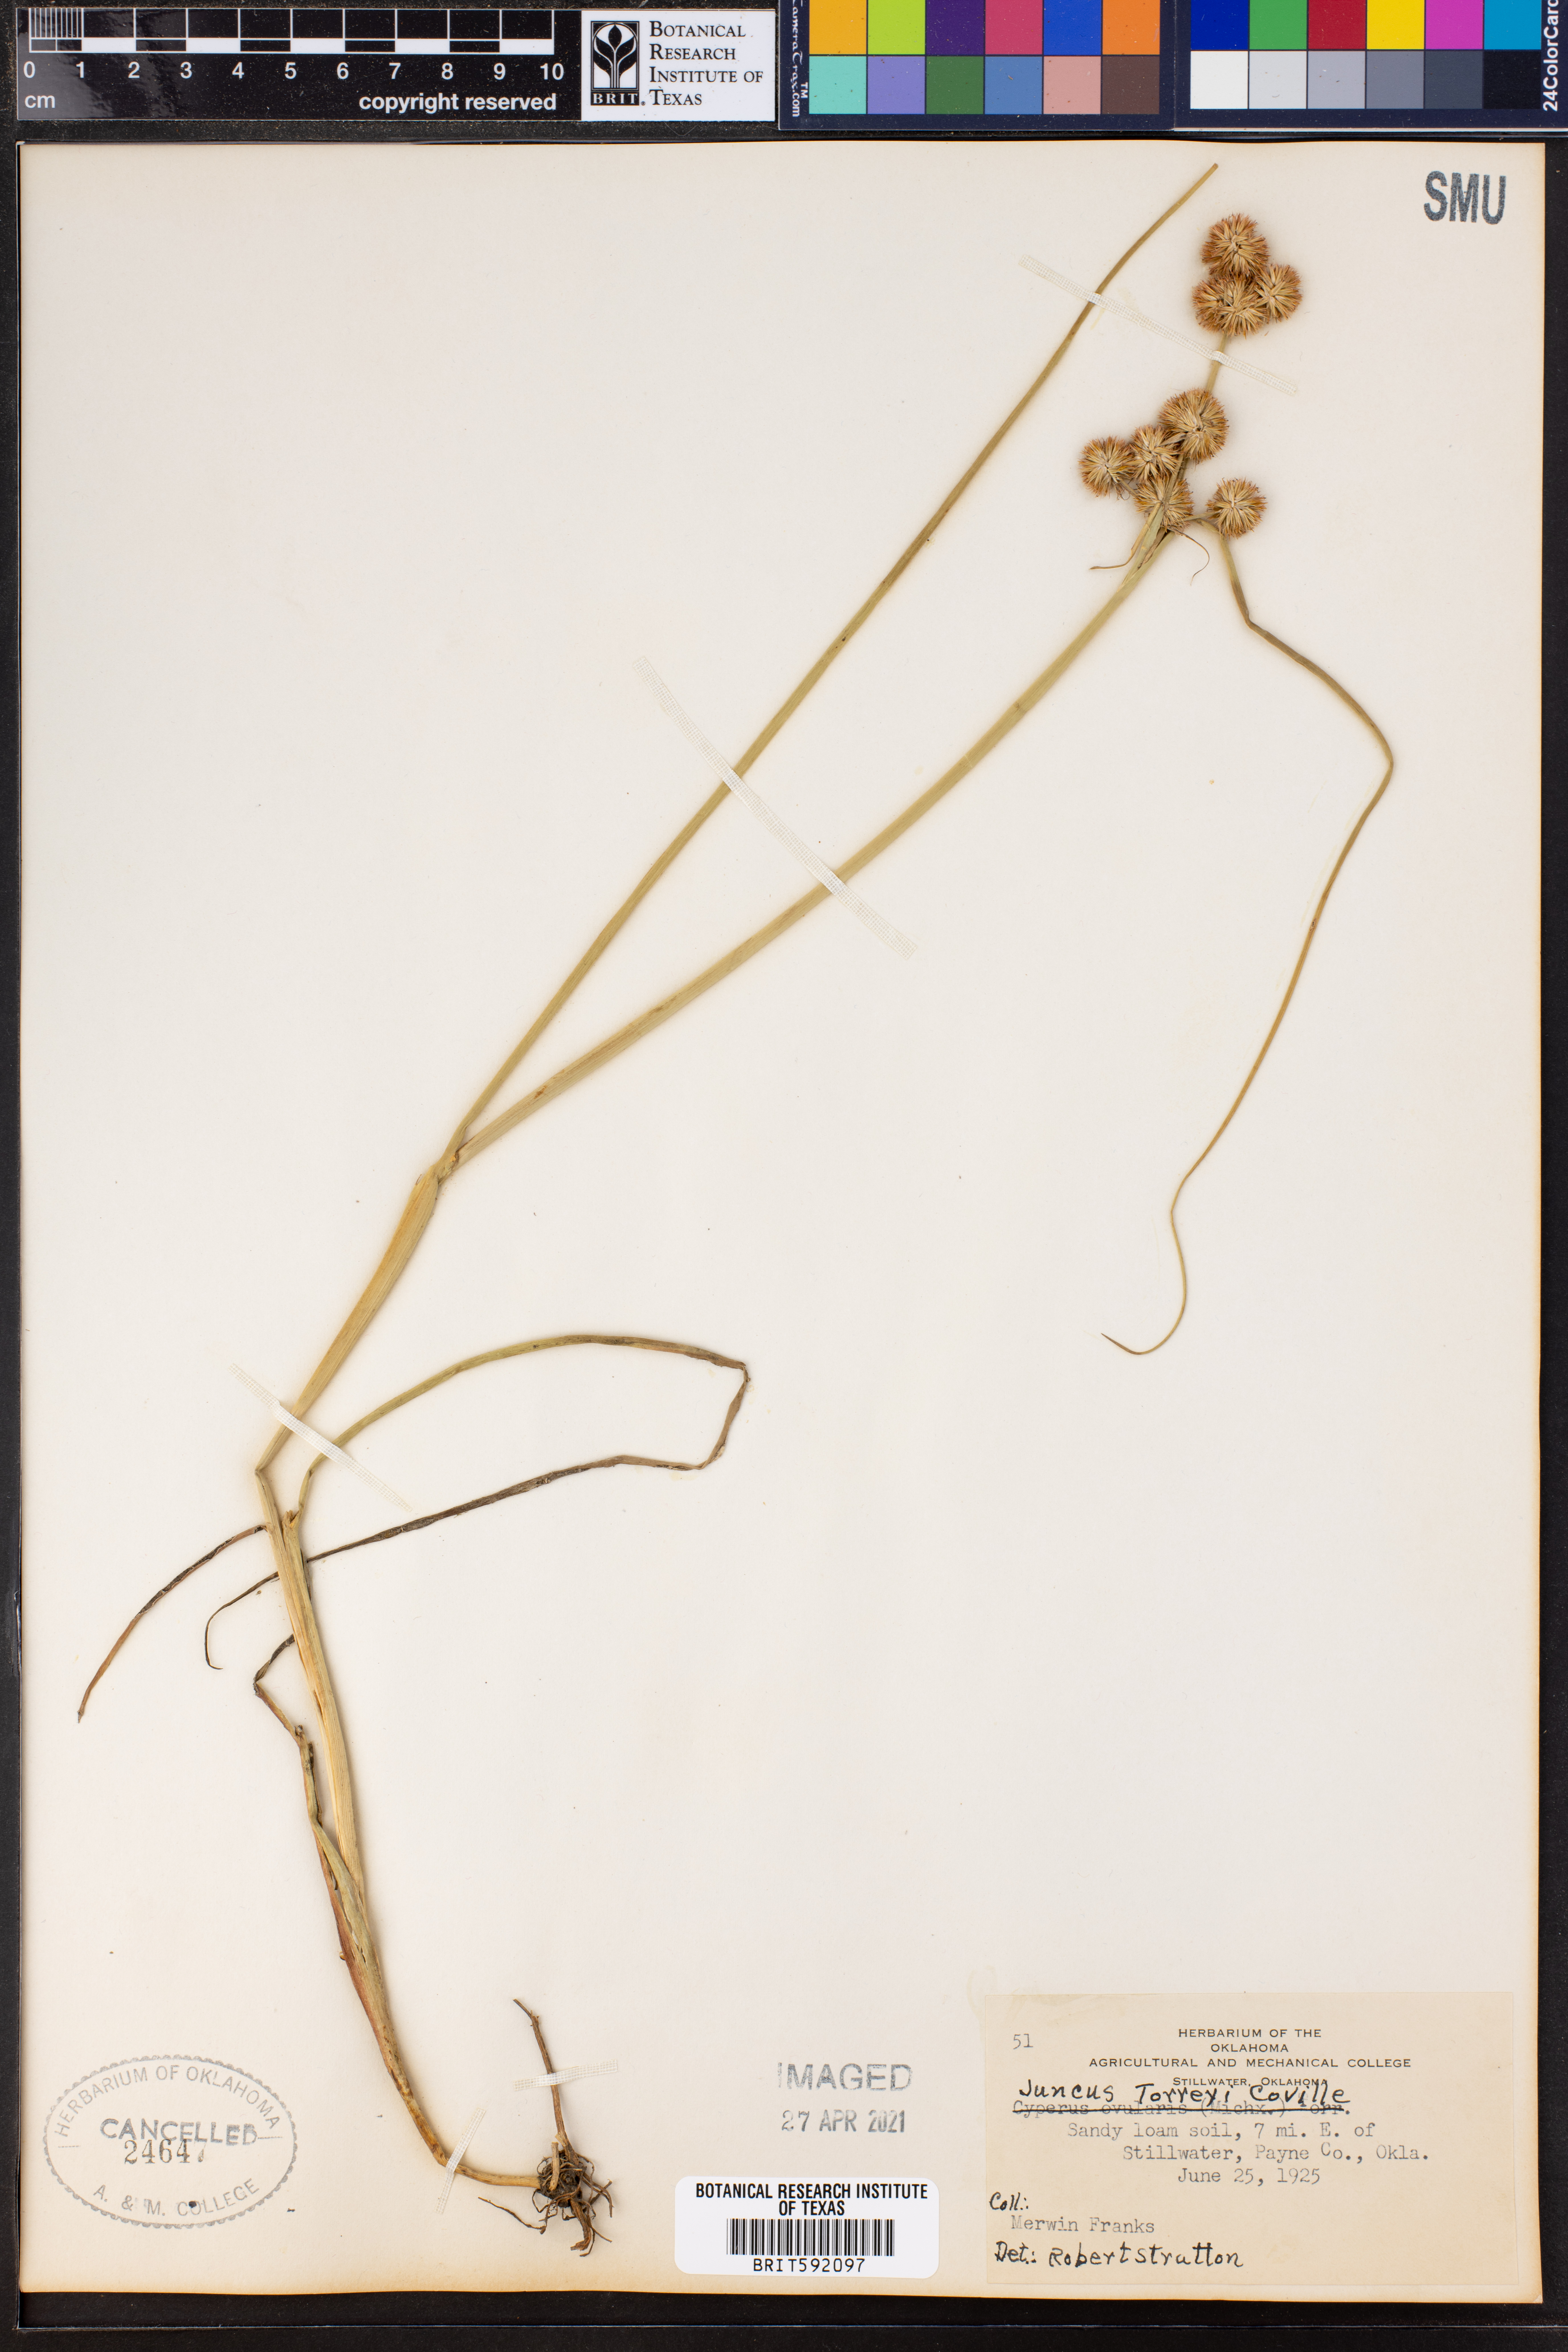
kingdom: Plantae
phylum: Tracheophyta
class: Liliopsida
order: Poales
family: Juncaceae
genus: Juncus
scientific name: Juncus torreyi
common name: Torrey's rush
